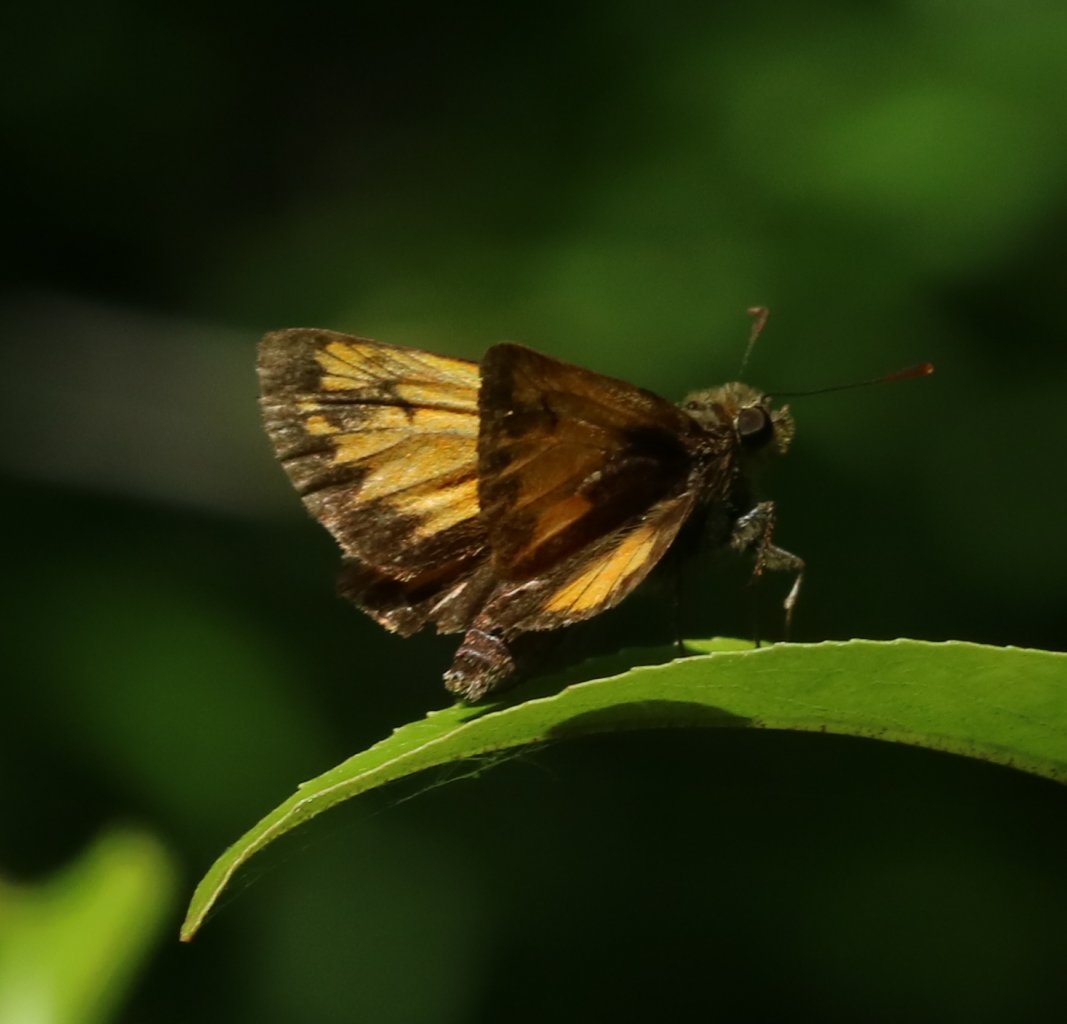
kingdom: Animalia
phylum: Arthropoda
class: Insecta
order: Lepidoptera
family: Hesperiidae
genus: Lon
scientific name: Lon hobomok
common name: Hobomok Skipper
